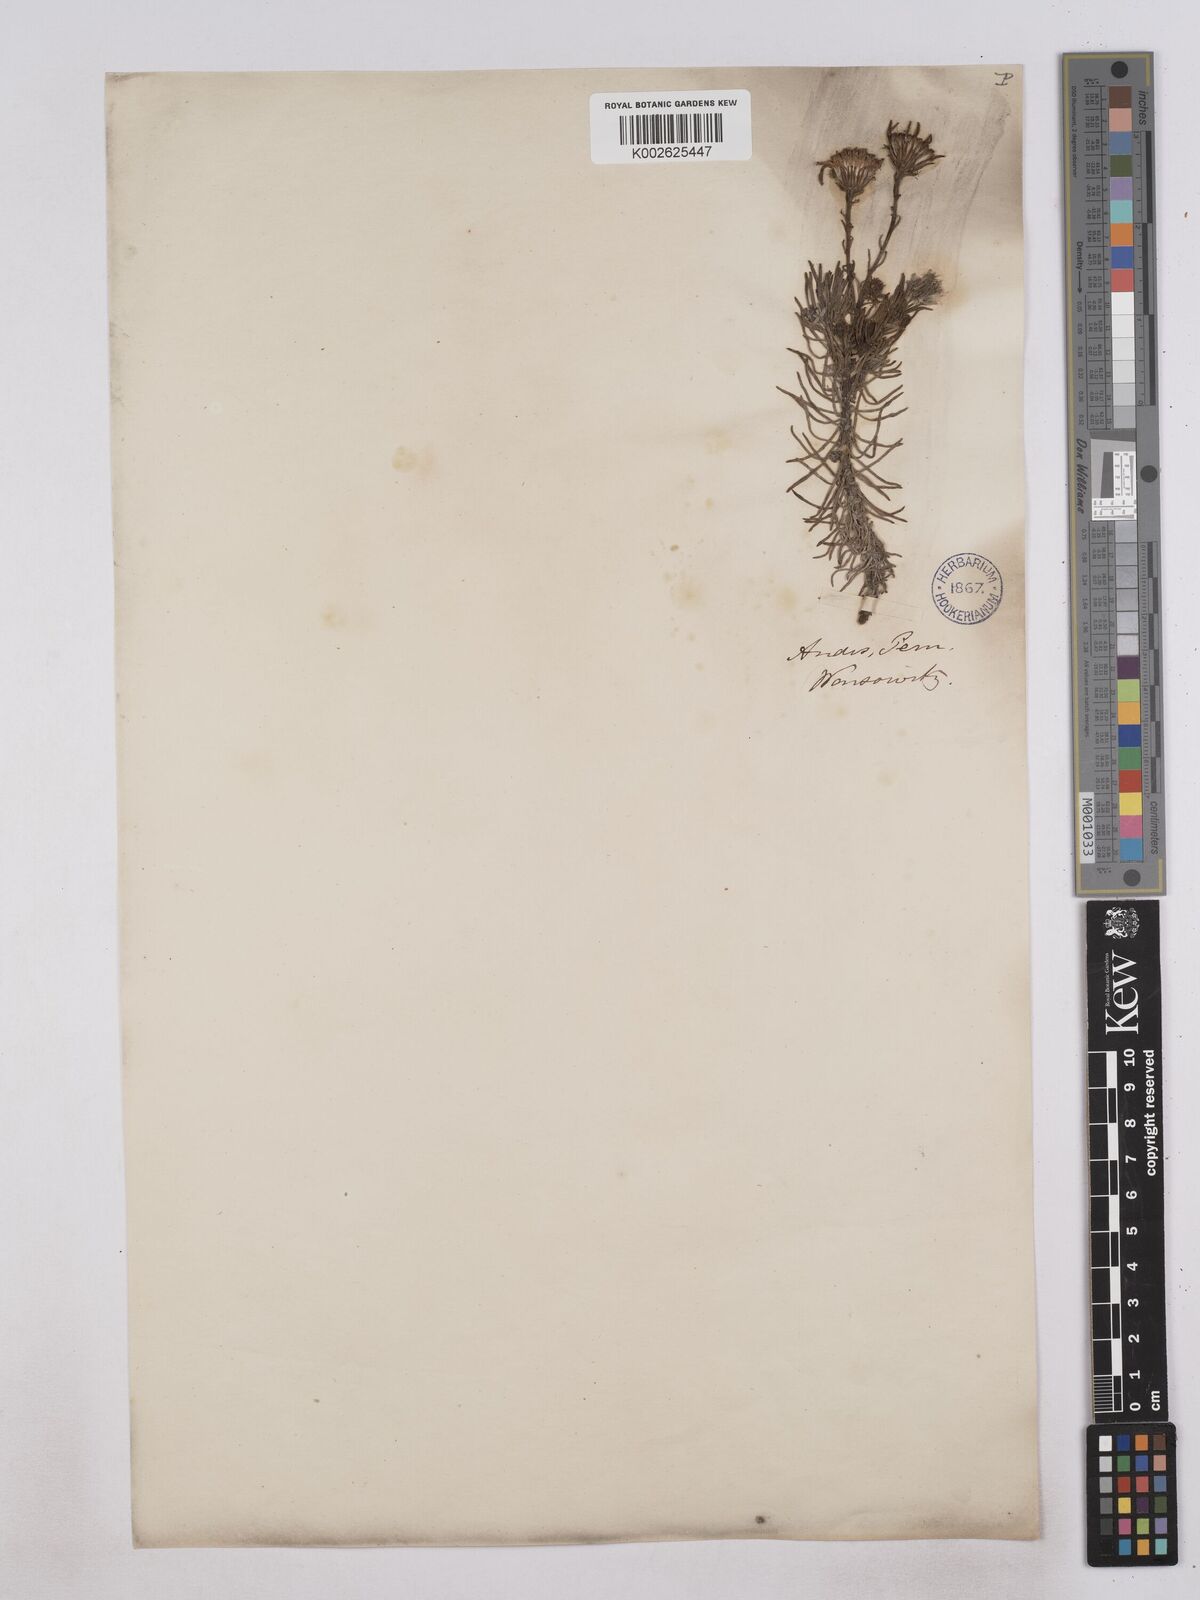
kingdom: Plantae
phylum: Tracheophyta
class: Magnoliopsida
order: Asterales
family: Asteraceae
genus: Senecio
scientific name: Senecio laricifolius
